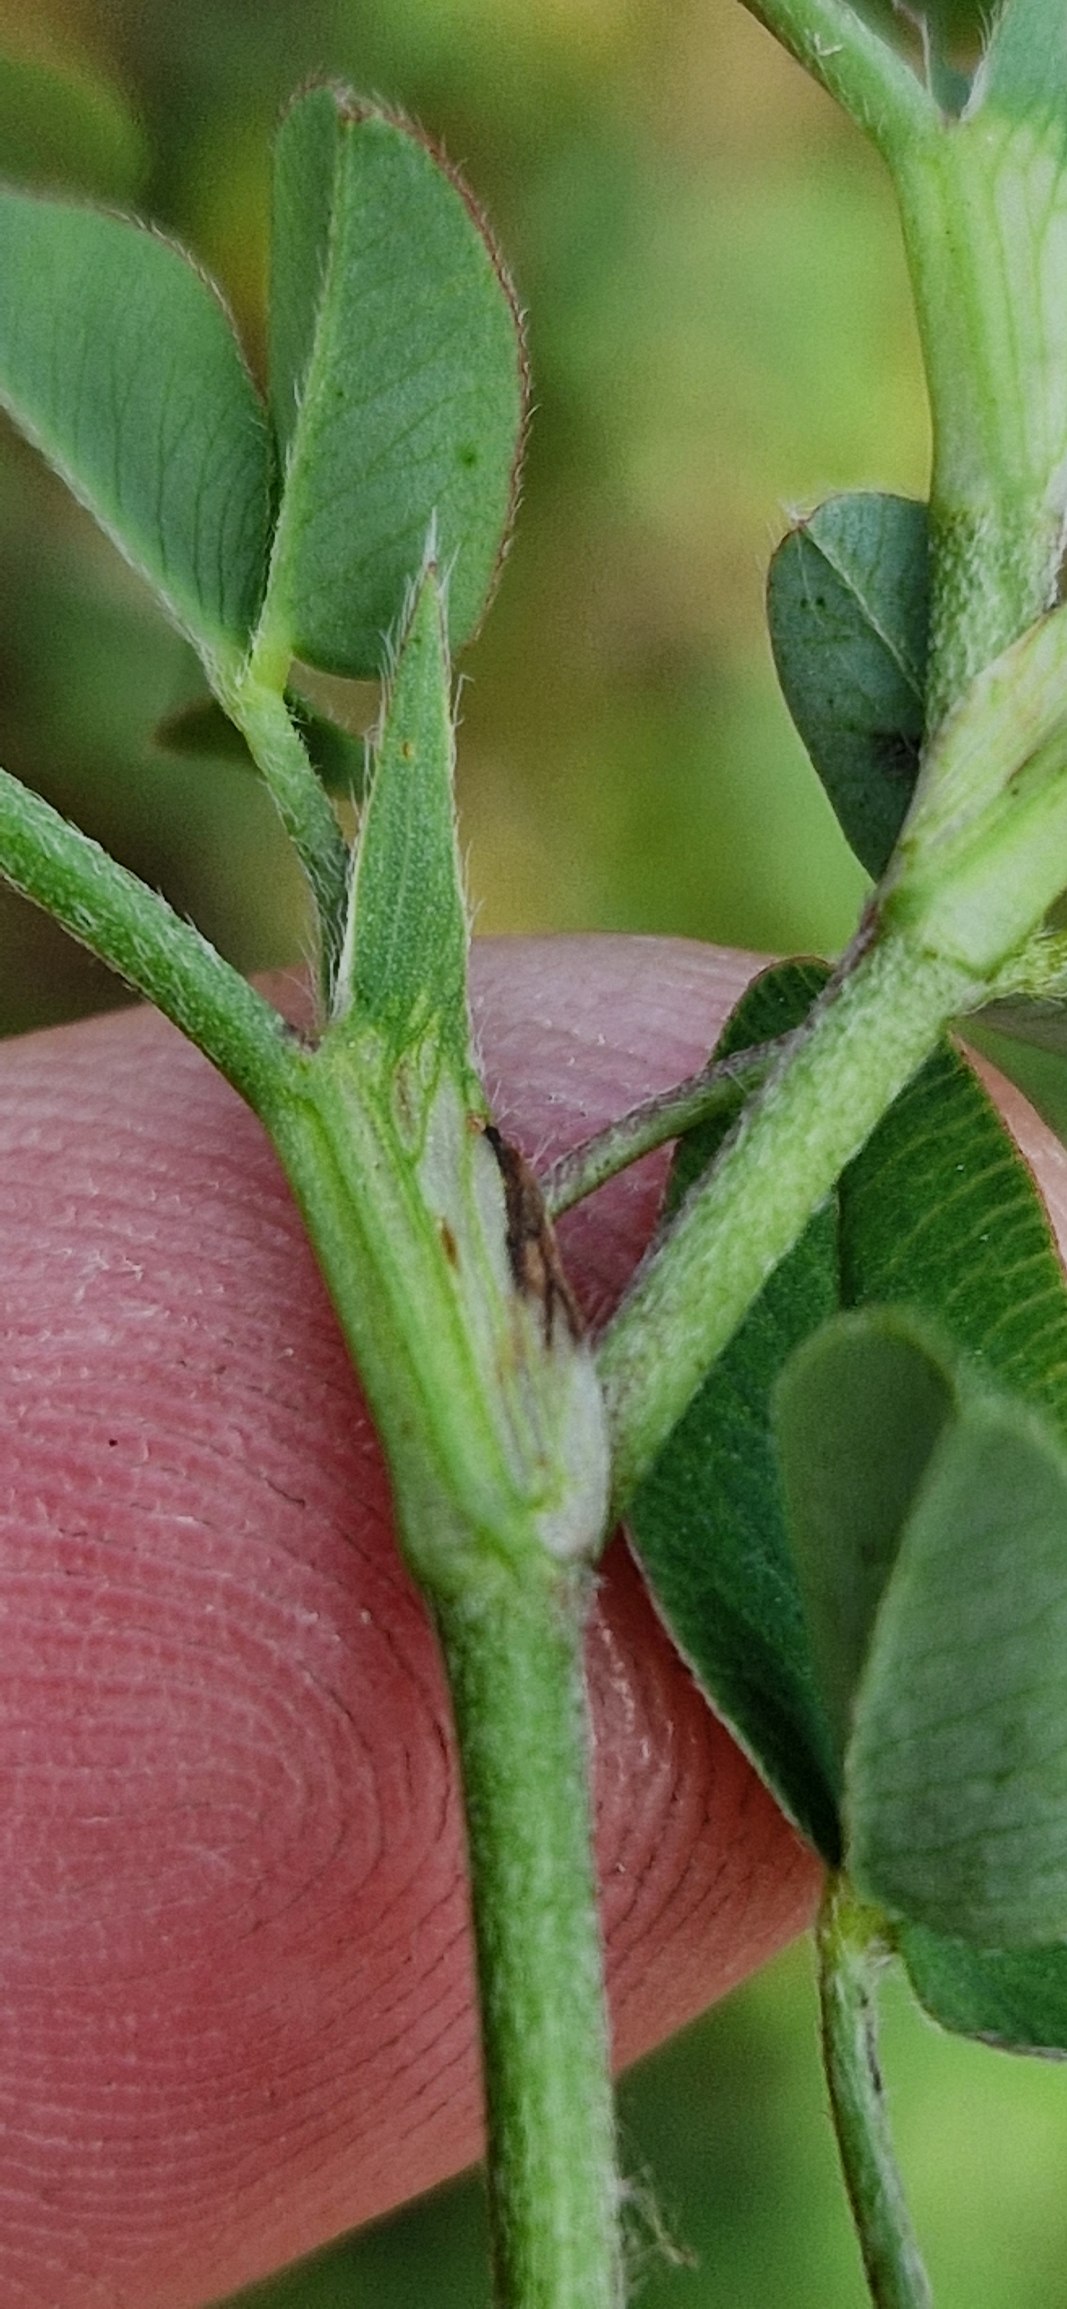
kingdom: Plantae
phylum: Tracheophyta
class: Magnoliopsida
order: Fabales
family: Fabaceae
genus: Trifolium
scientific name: Trifolium medium
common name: Bugtet kløver
